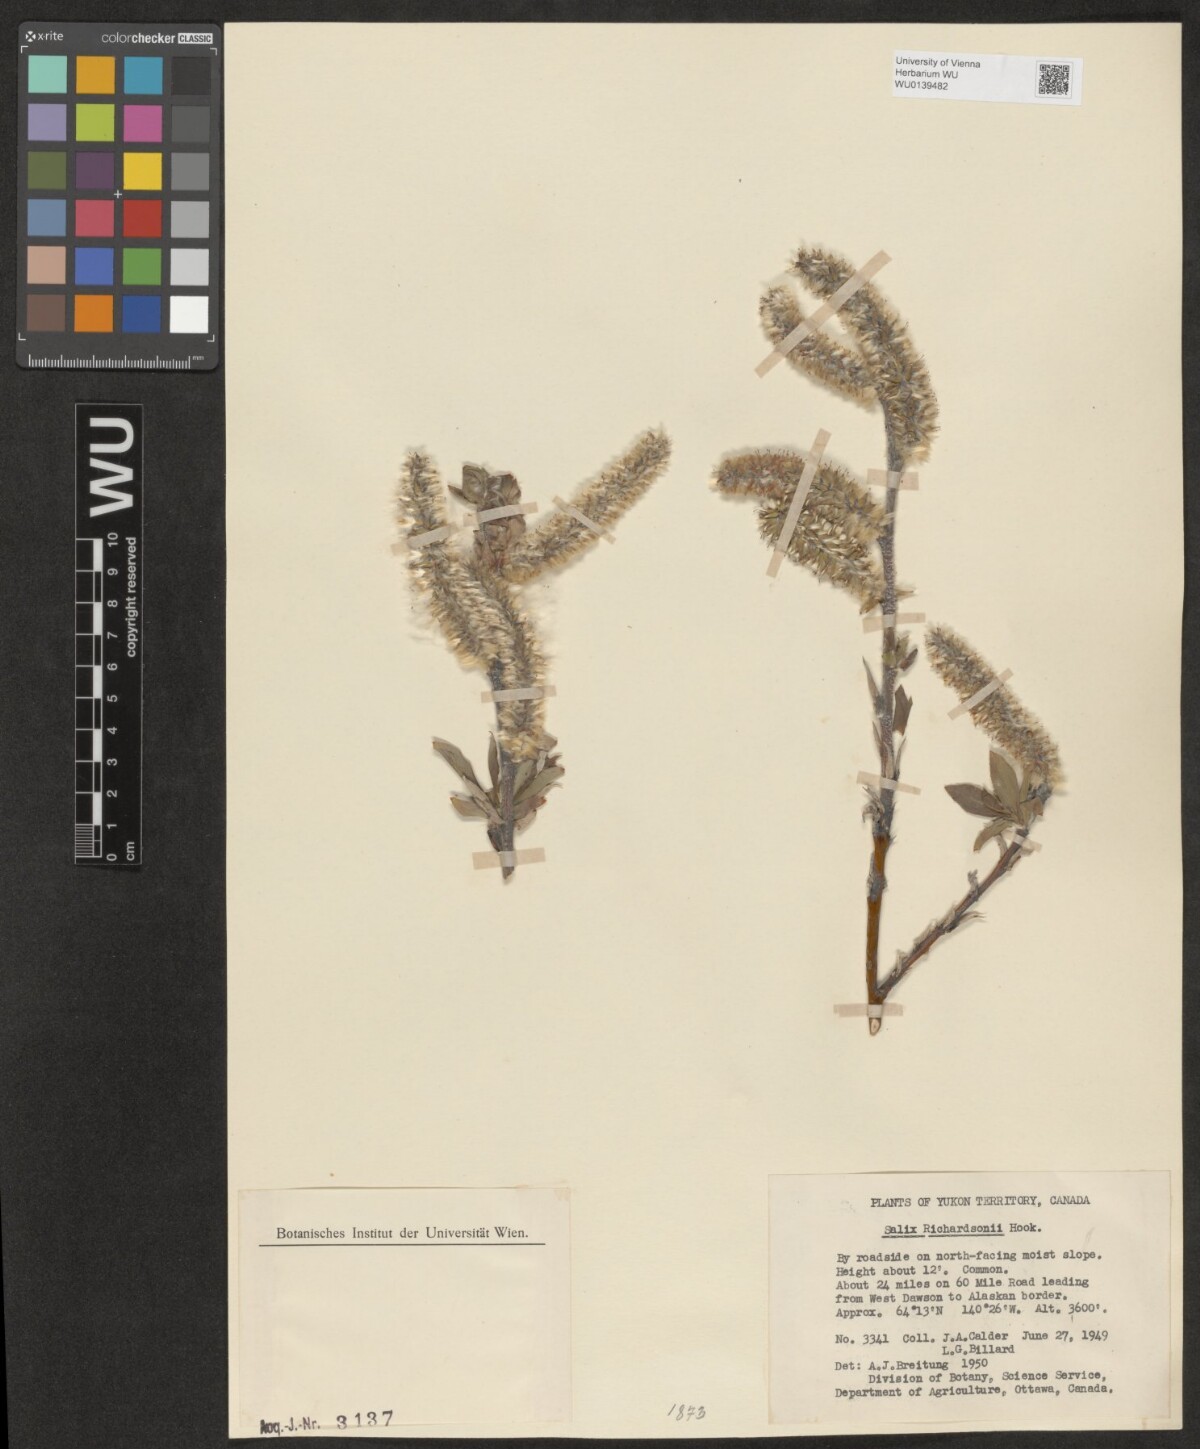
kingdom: Plantae
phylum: Tracheophyta
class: Magnoliopsida
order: Malpighiales
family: Salicaceae
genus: Salix
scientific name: Salix richardsonii
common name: Richardson’s willow
